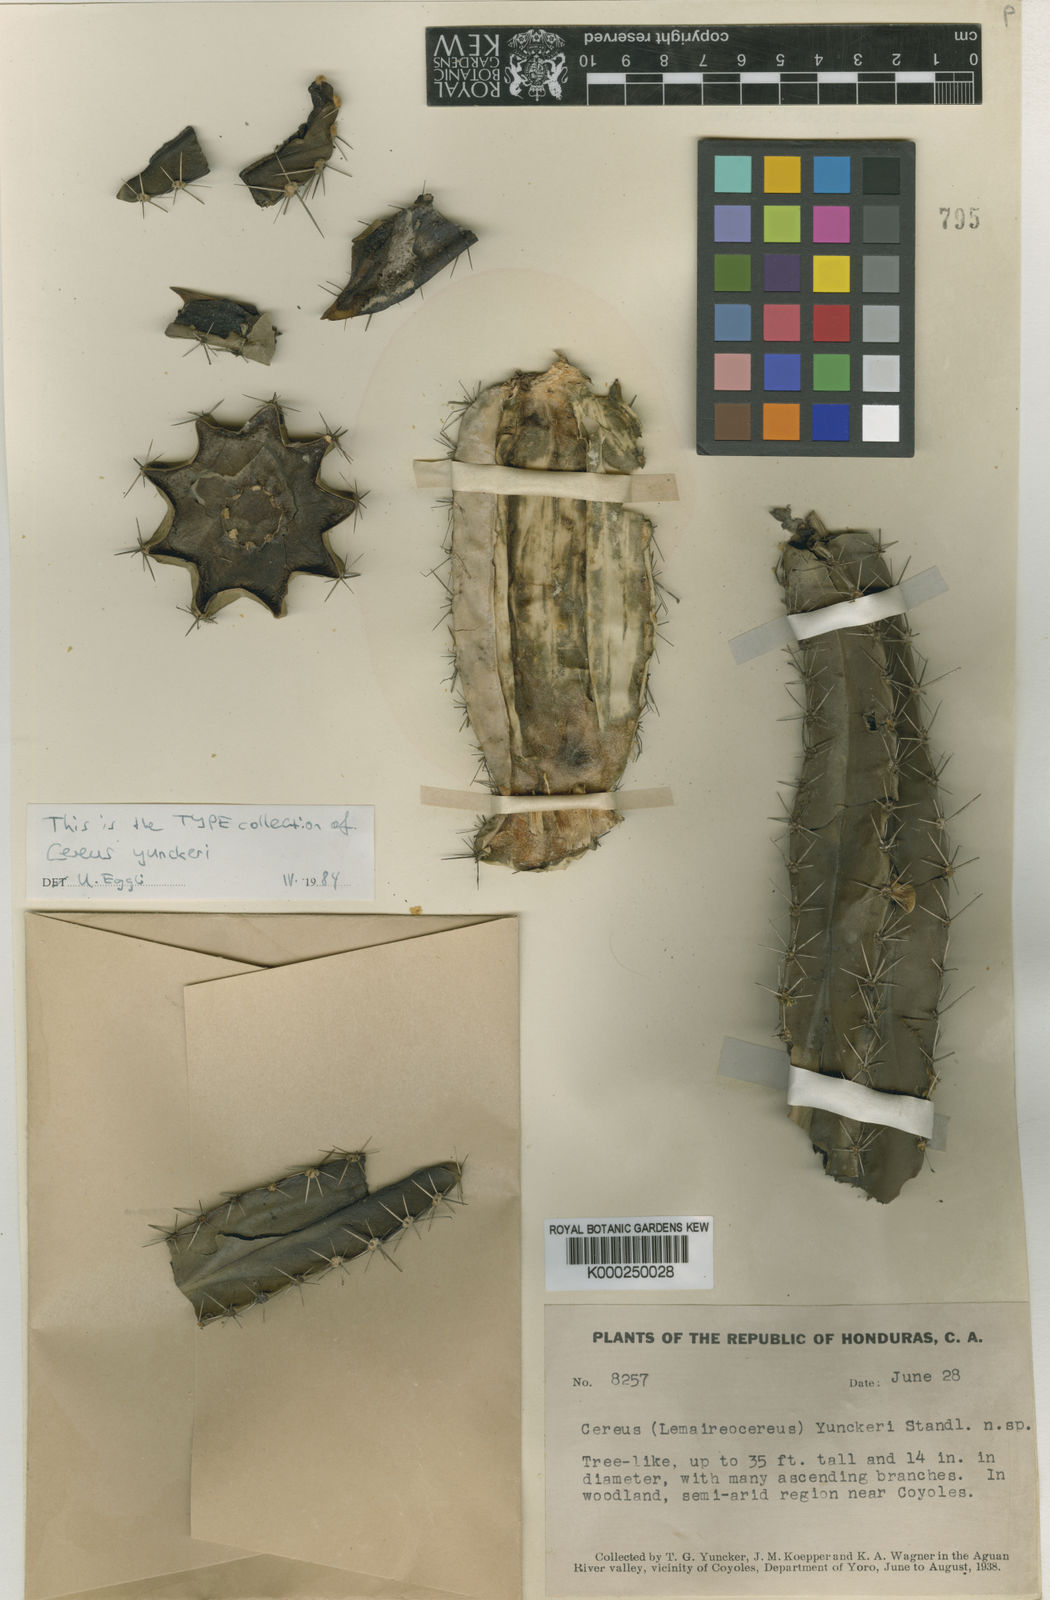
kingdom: Plantae
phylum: Tracheophyta
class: Magnoliopsida
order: Caryophyllales
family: Cactaceae
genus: Stenocereus
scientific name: Stenocereus aragonii
